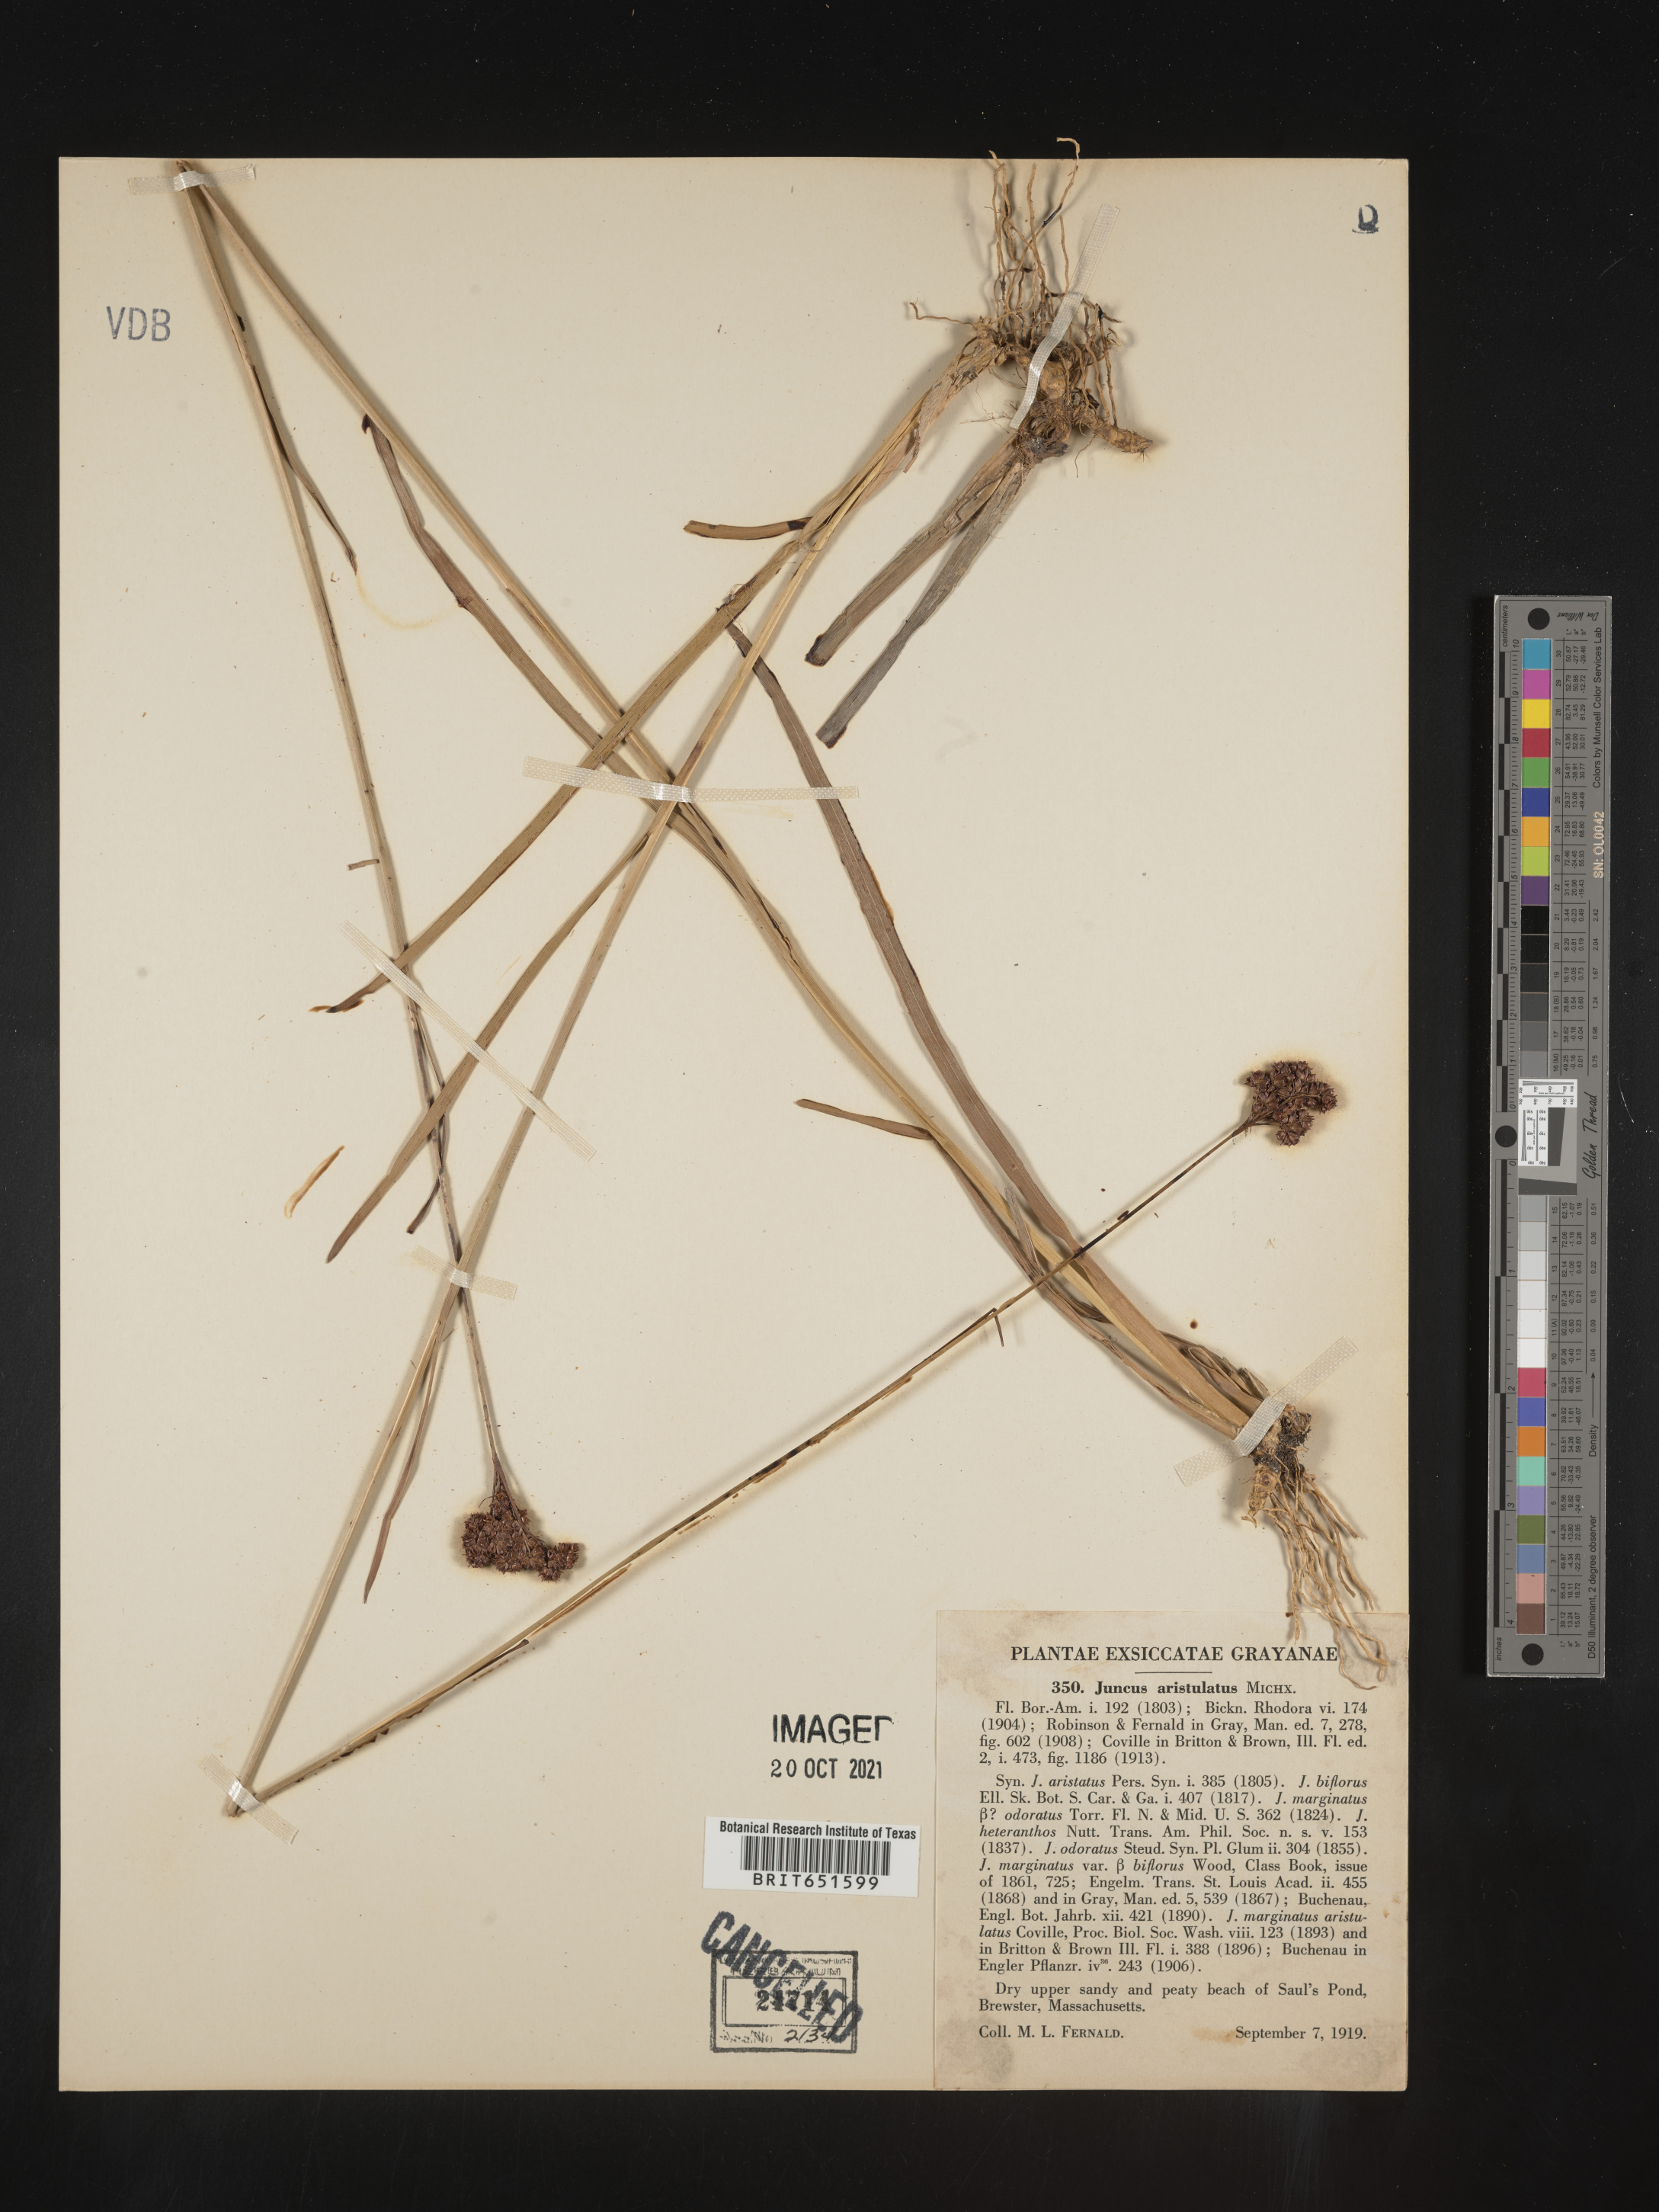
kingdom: Plantae
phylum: Tracheophyta
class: Liliopsida
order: Poales
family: Juncaceae
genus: Juncus
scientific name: Juncus marginatus
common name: Grass-leaf rush
